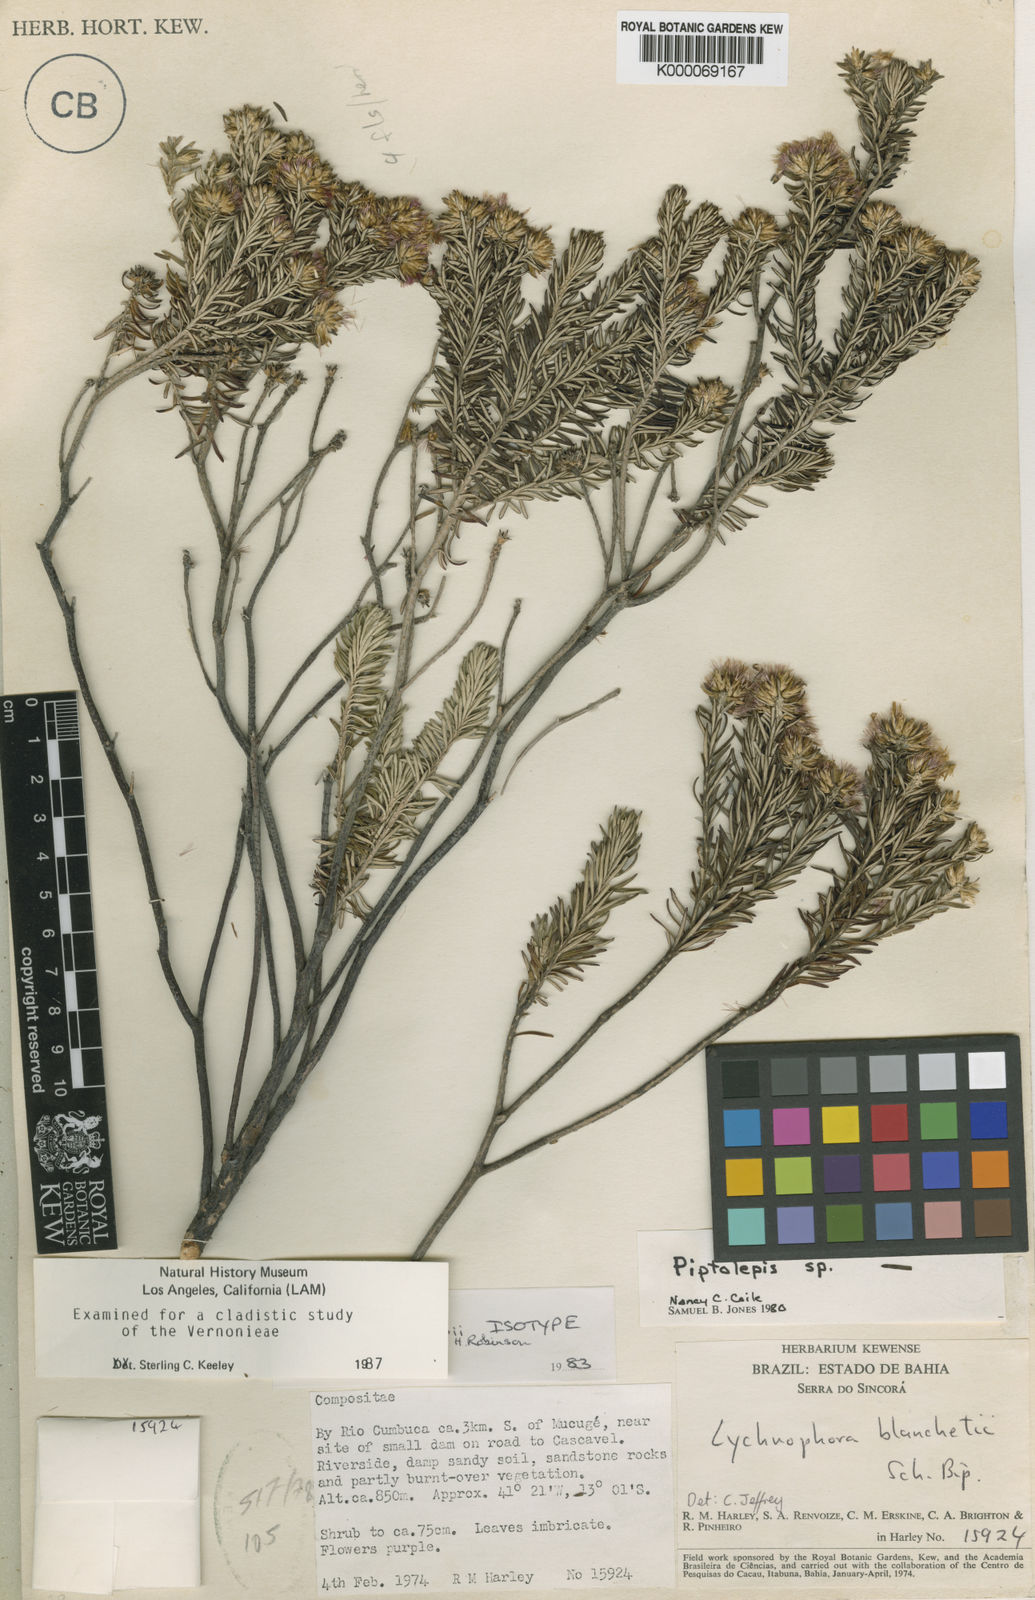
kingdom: Plantae
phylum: Tracheophyta
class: Magnoliopsida
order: Asterales
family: Asteraceae
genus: Lychnophorella
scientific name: Lychnophorella bishopii
